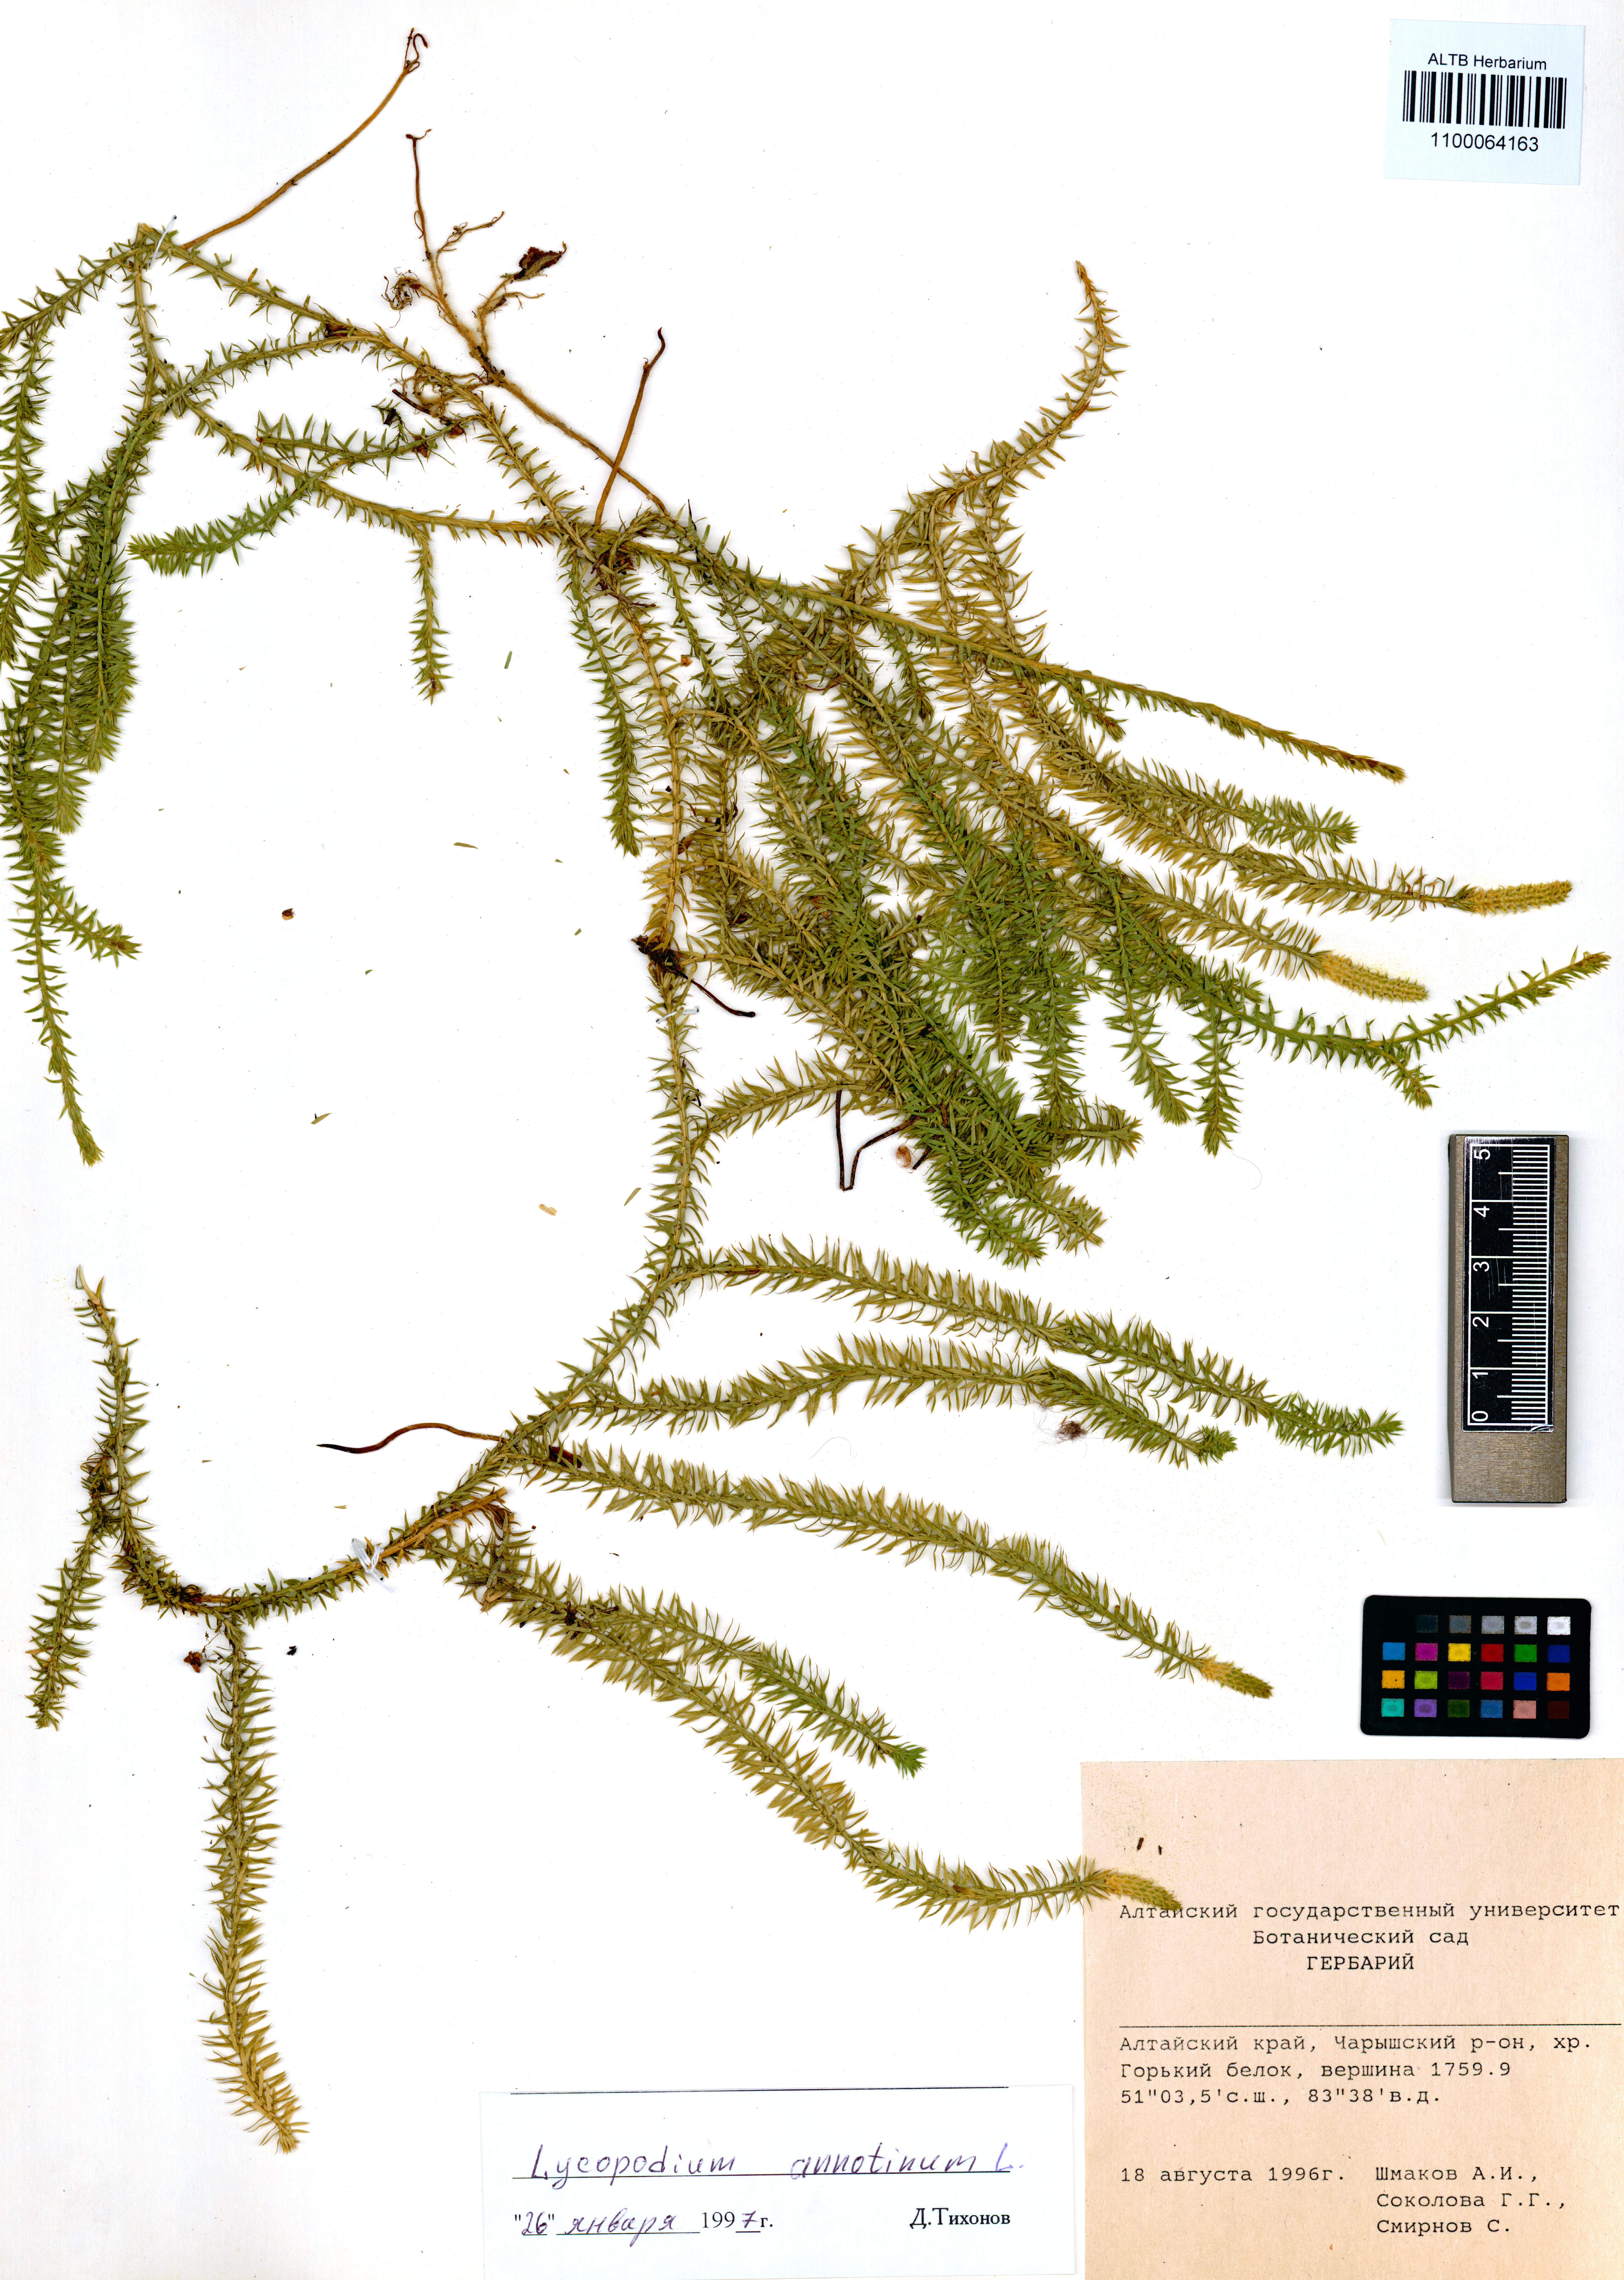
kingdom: Plantae
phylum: Tracheophyta
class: Lycopodiopsida
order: Lycopodiales
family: Lycopodiaceae
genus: Spinulum
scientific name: Spinulum annotinum
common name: Interrupted club-moss
